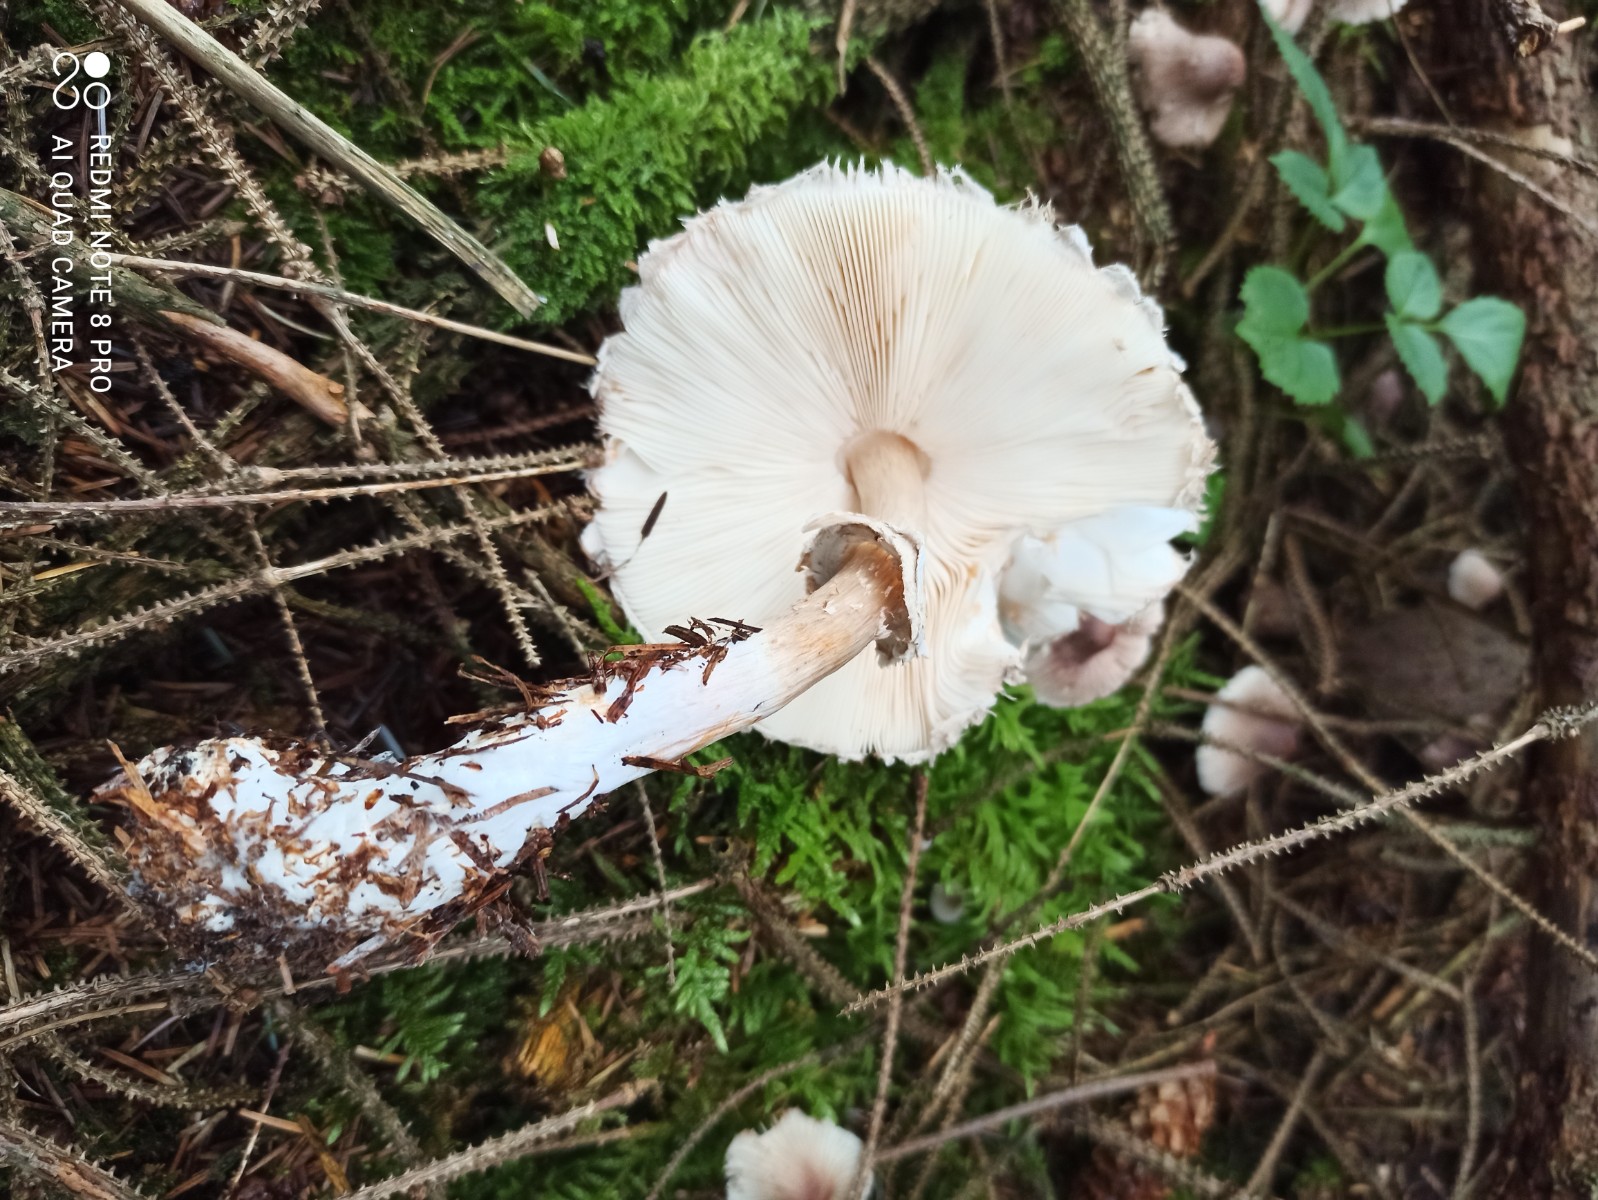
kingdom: Fungi
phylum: Basidiomycota
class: Agaricomycetes
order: Agaricales
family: Agaricaceae
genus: Chlorophyllum
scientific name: Chlorophyllum olivieri
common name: almindelig rabarberhat
